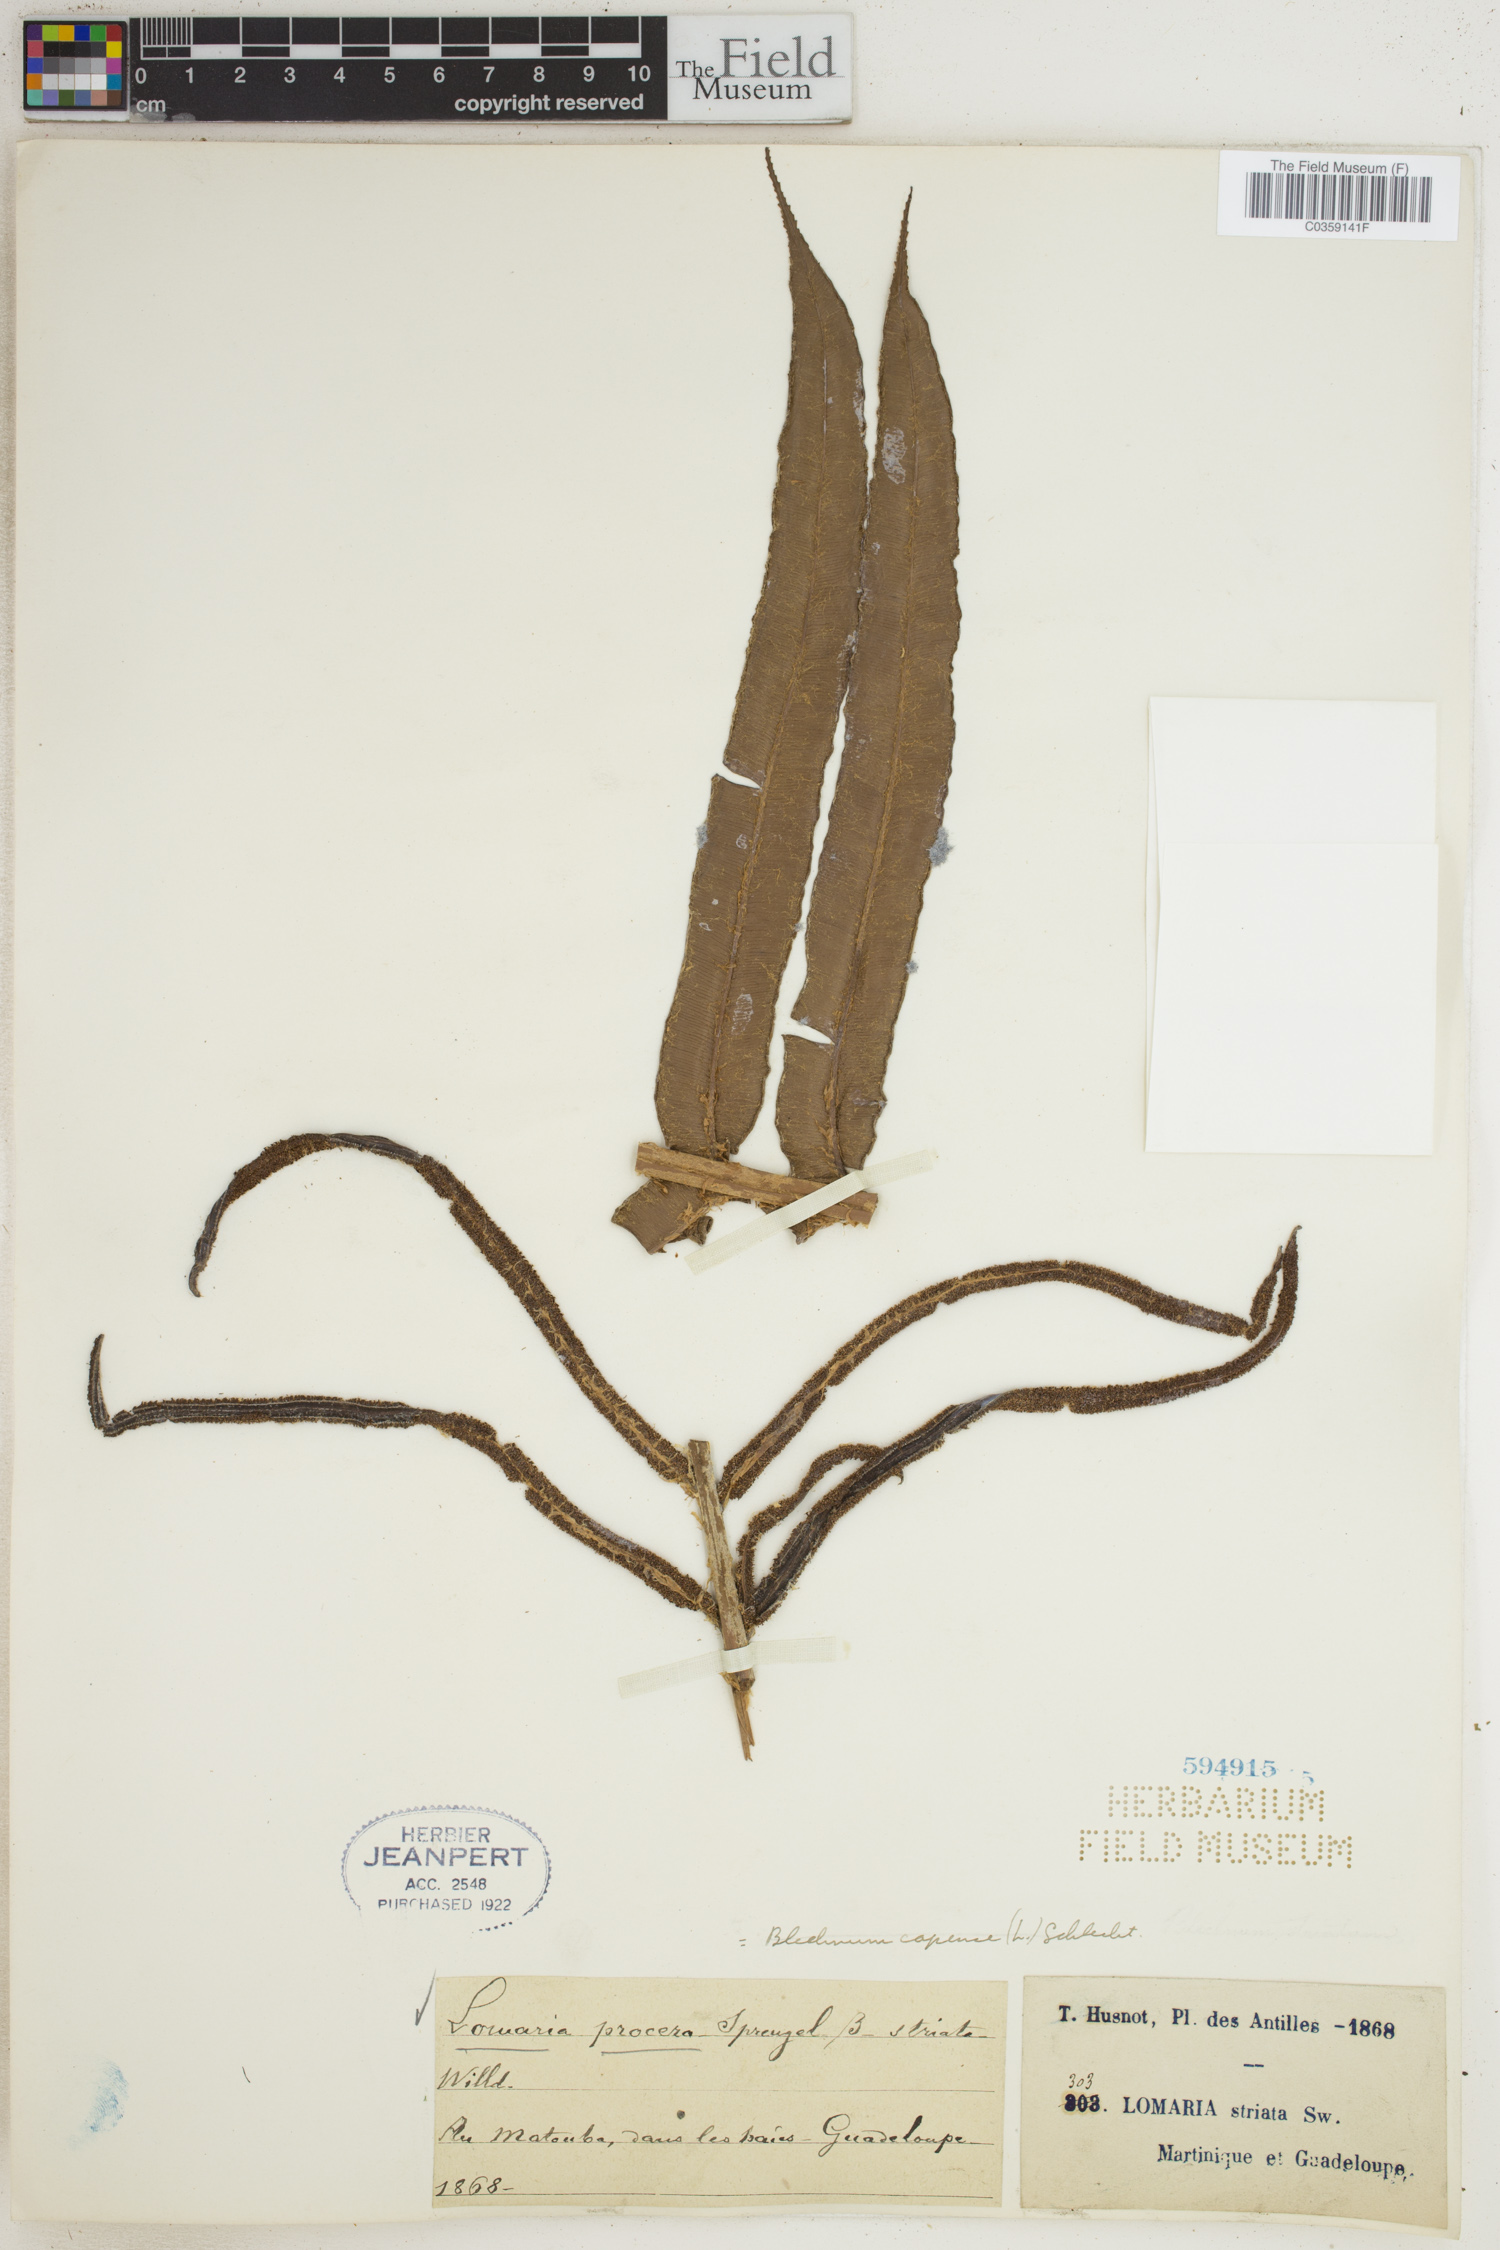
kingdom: Plantae
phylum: Tracheophyta
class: Polypodiopsida
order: Polypodiales
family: Blechnaceae
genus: Parablechnum
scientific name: Parablechnum capense
